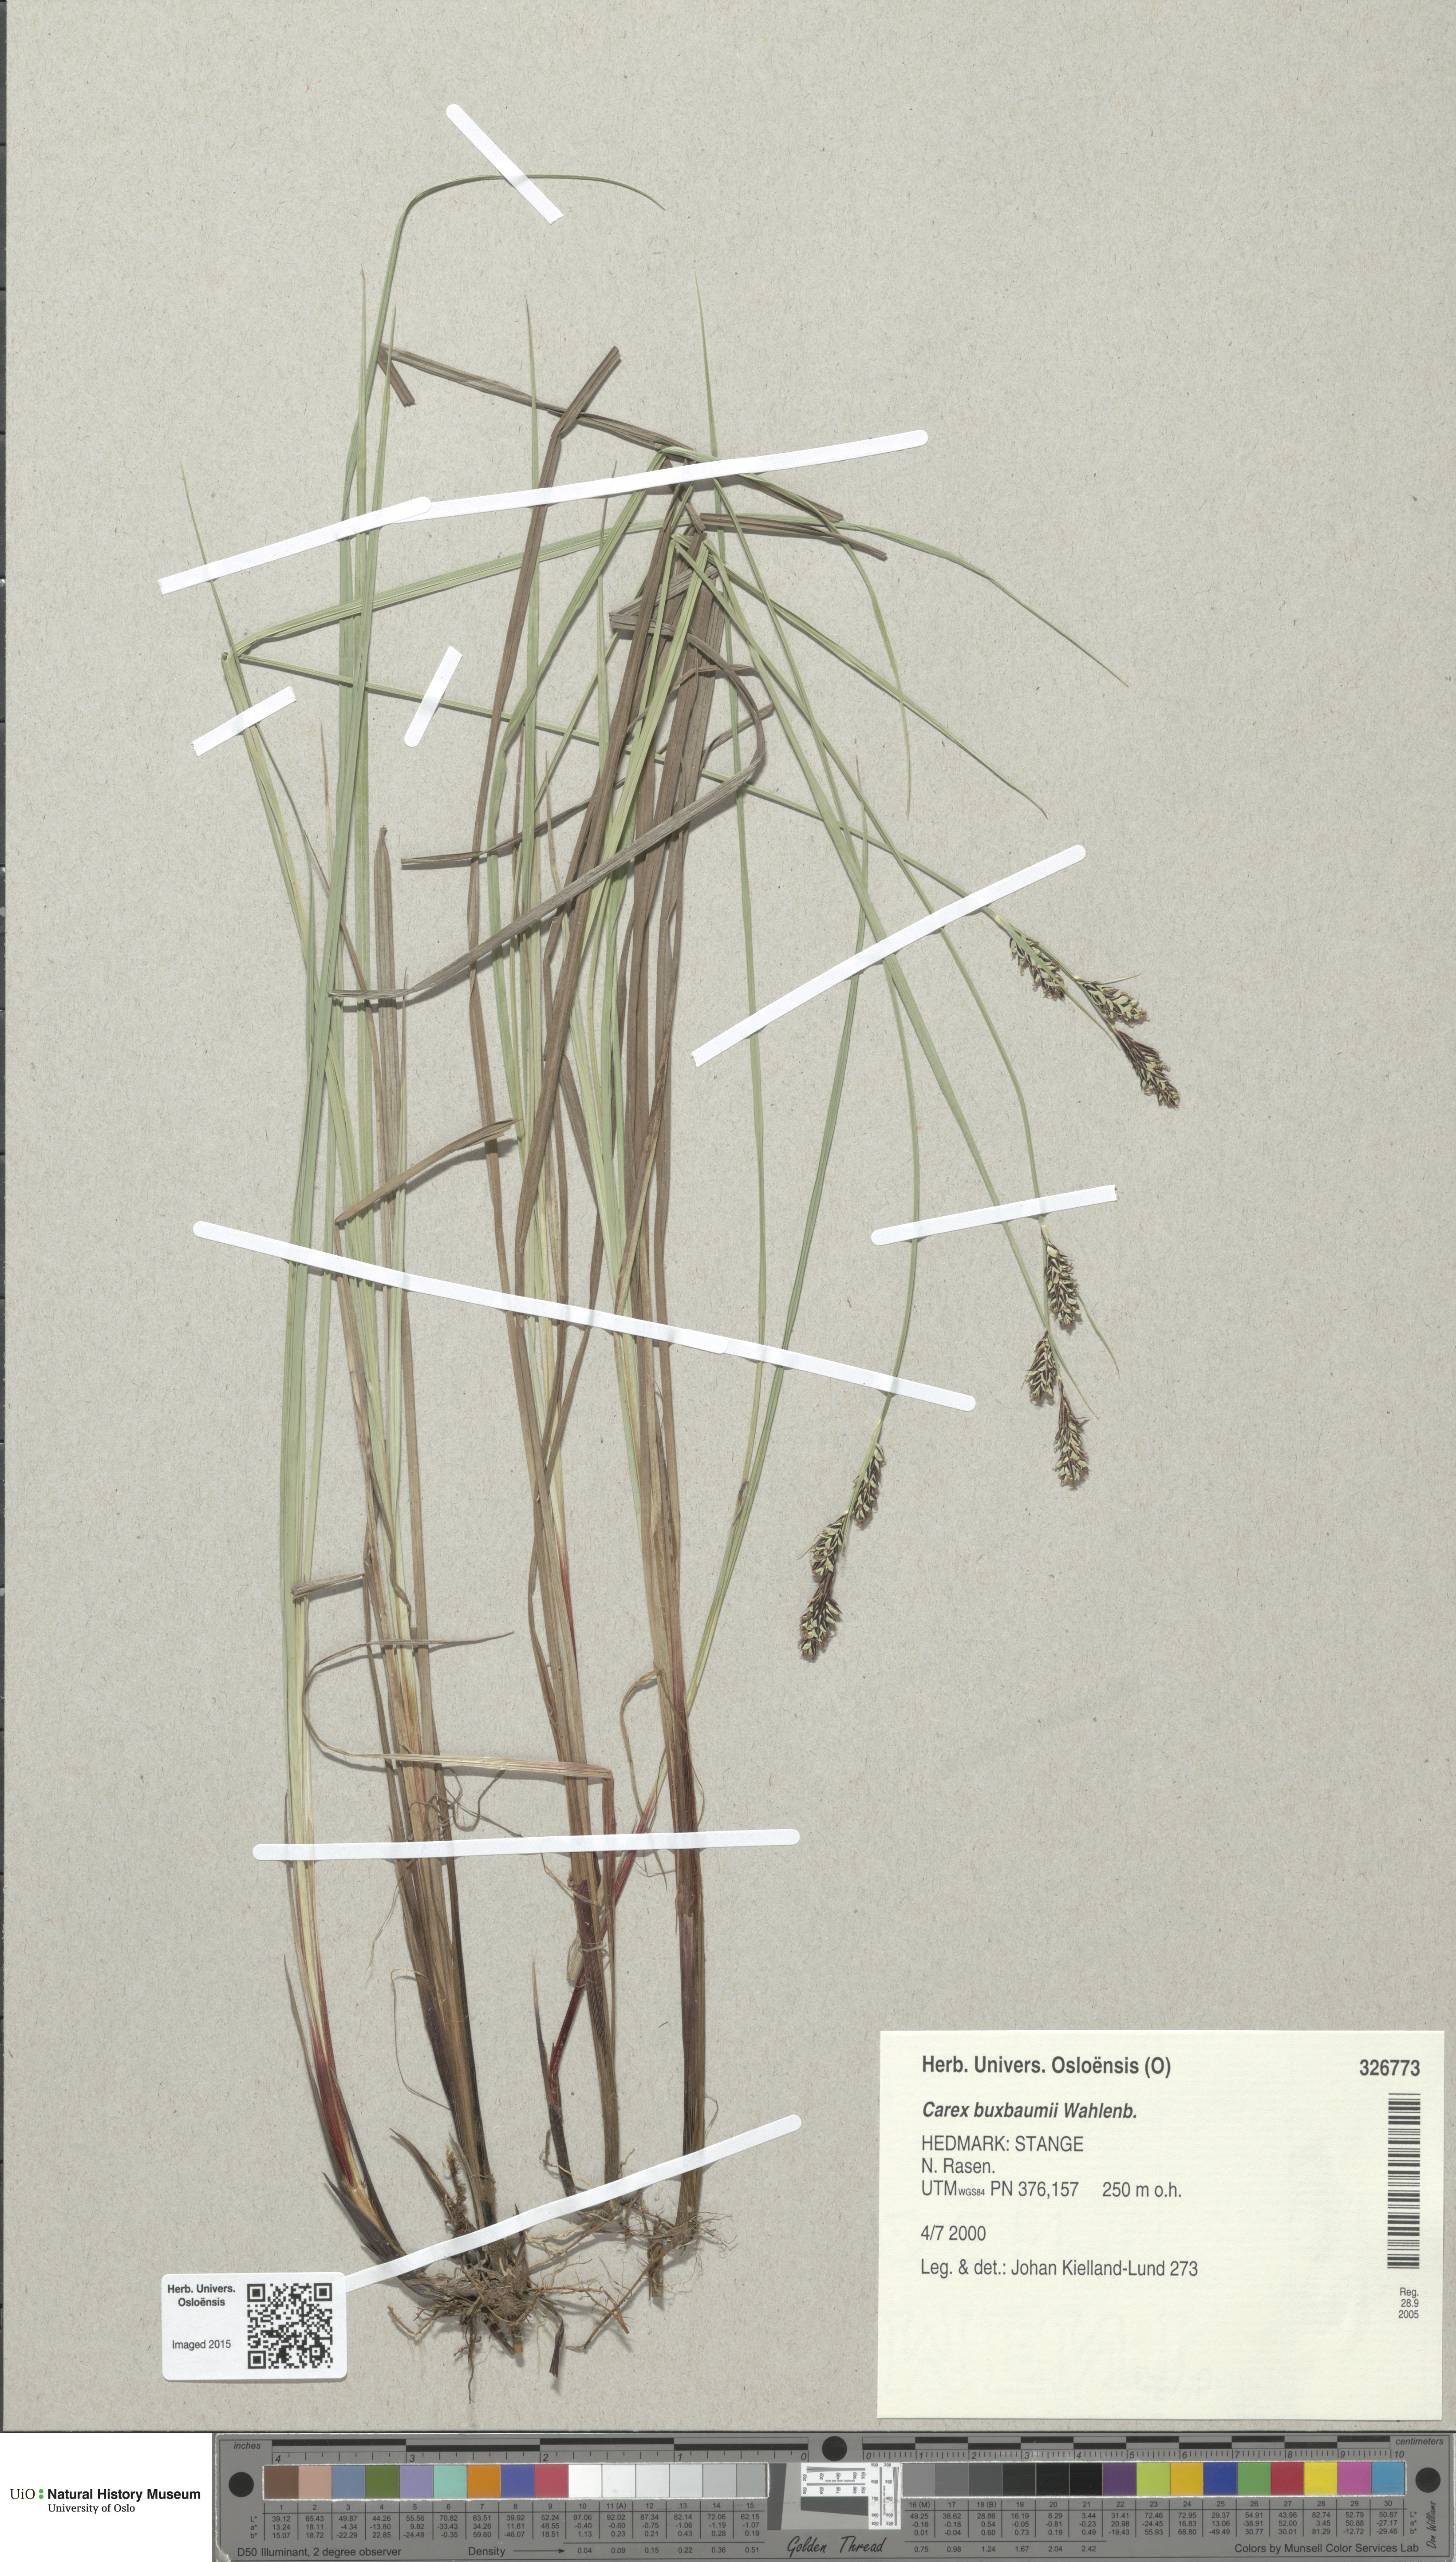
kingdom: Plantae
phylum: Tracheophyta
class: Liliopsida
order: Poales
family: Cyperaceae
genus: Carex
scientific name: Carex buxbaumii
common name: Club sedge
